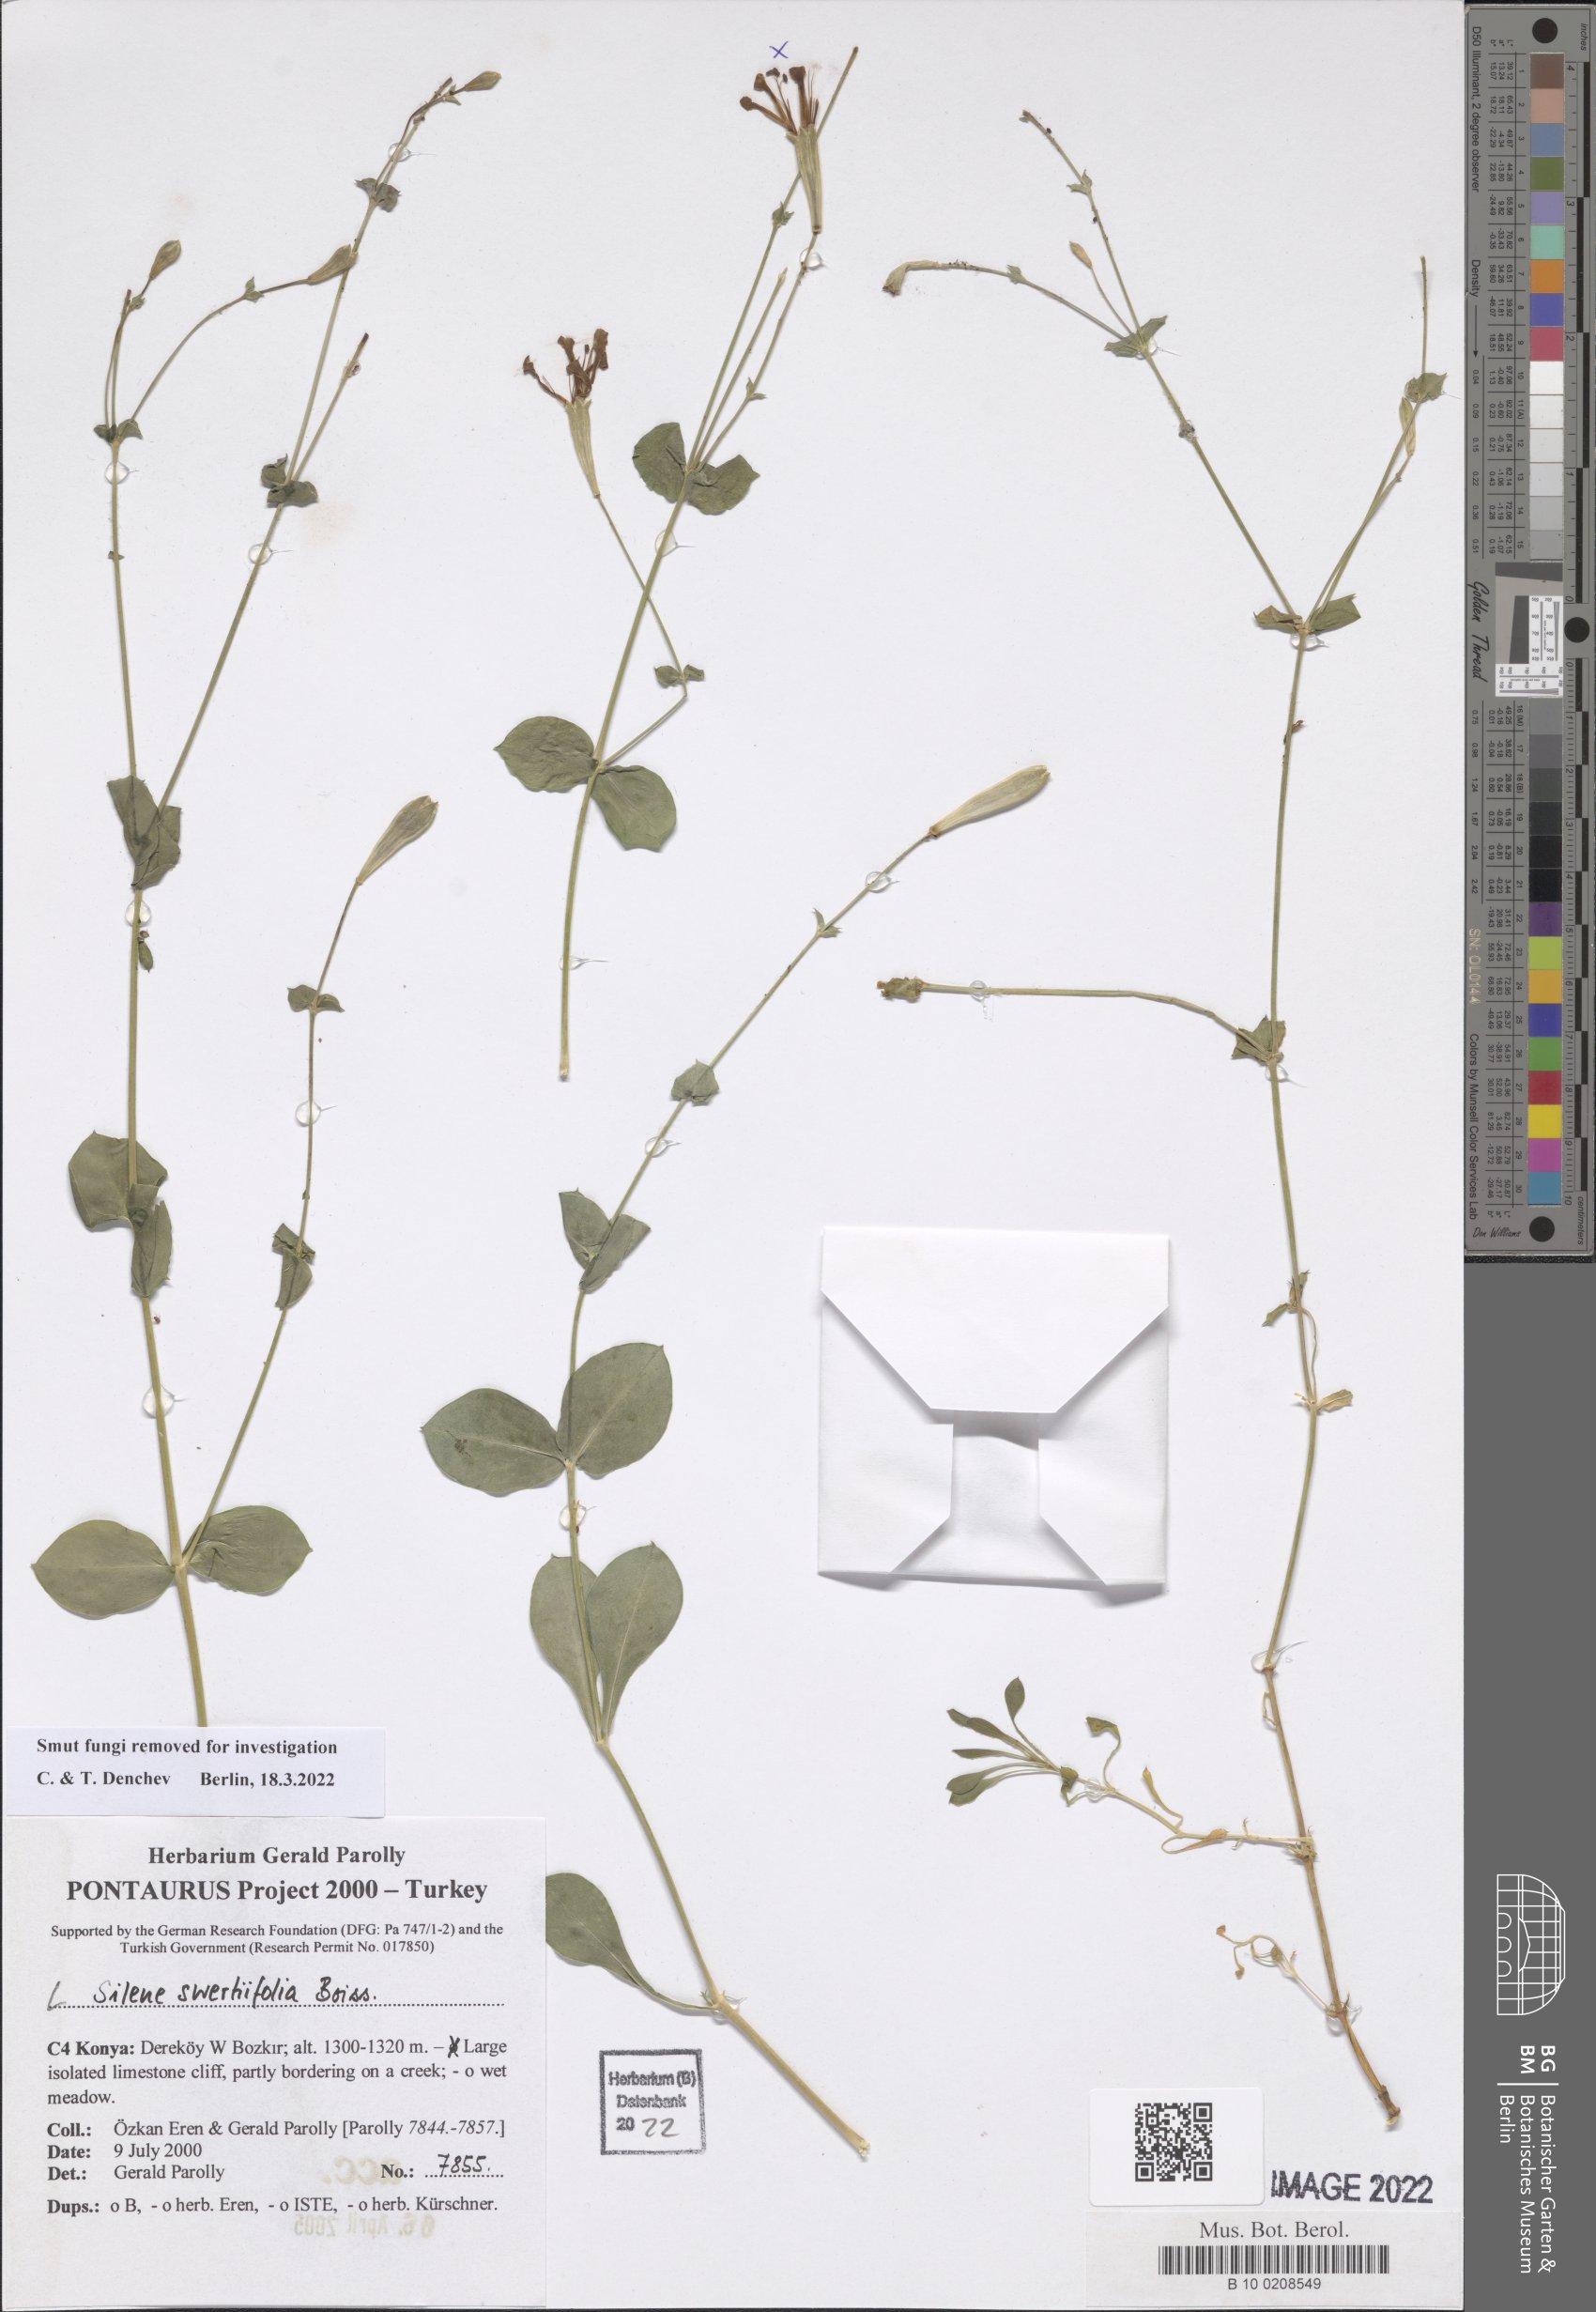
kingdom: Plantae
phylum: Tracheophyta
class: Magnoliopsida
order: Caryophyllales
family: Caryophyllaceae
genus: Silene
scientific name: Silene swertiifolia
